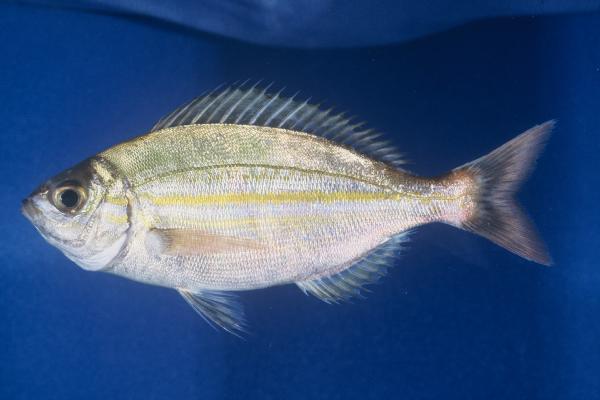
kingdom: Animalia
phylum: Chordata
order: Perciformes
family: Sparidae
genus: Spondyliosoma
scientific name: Spondyliosoma
